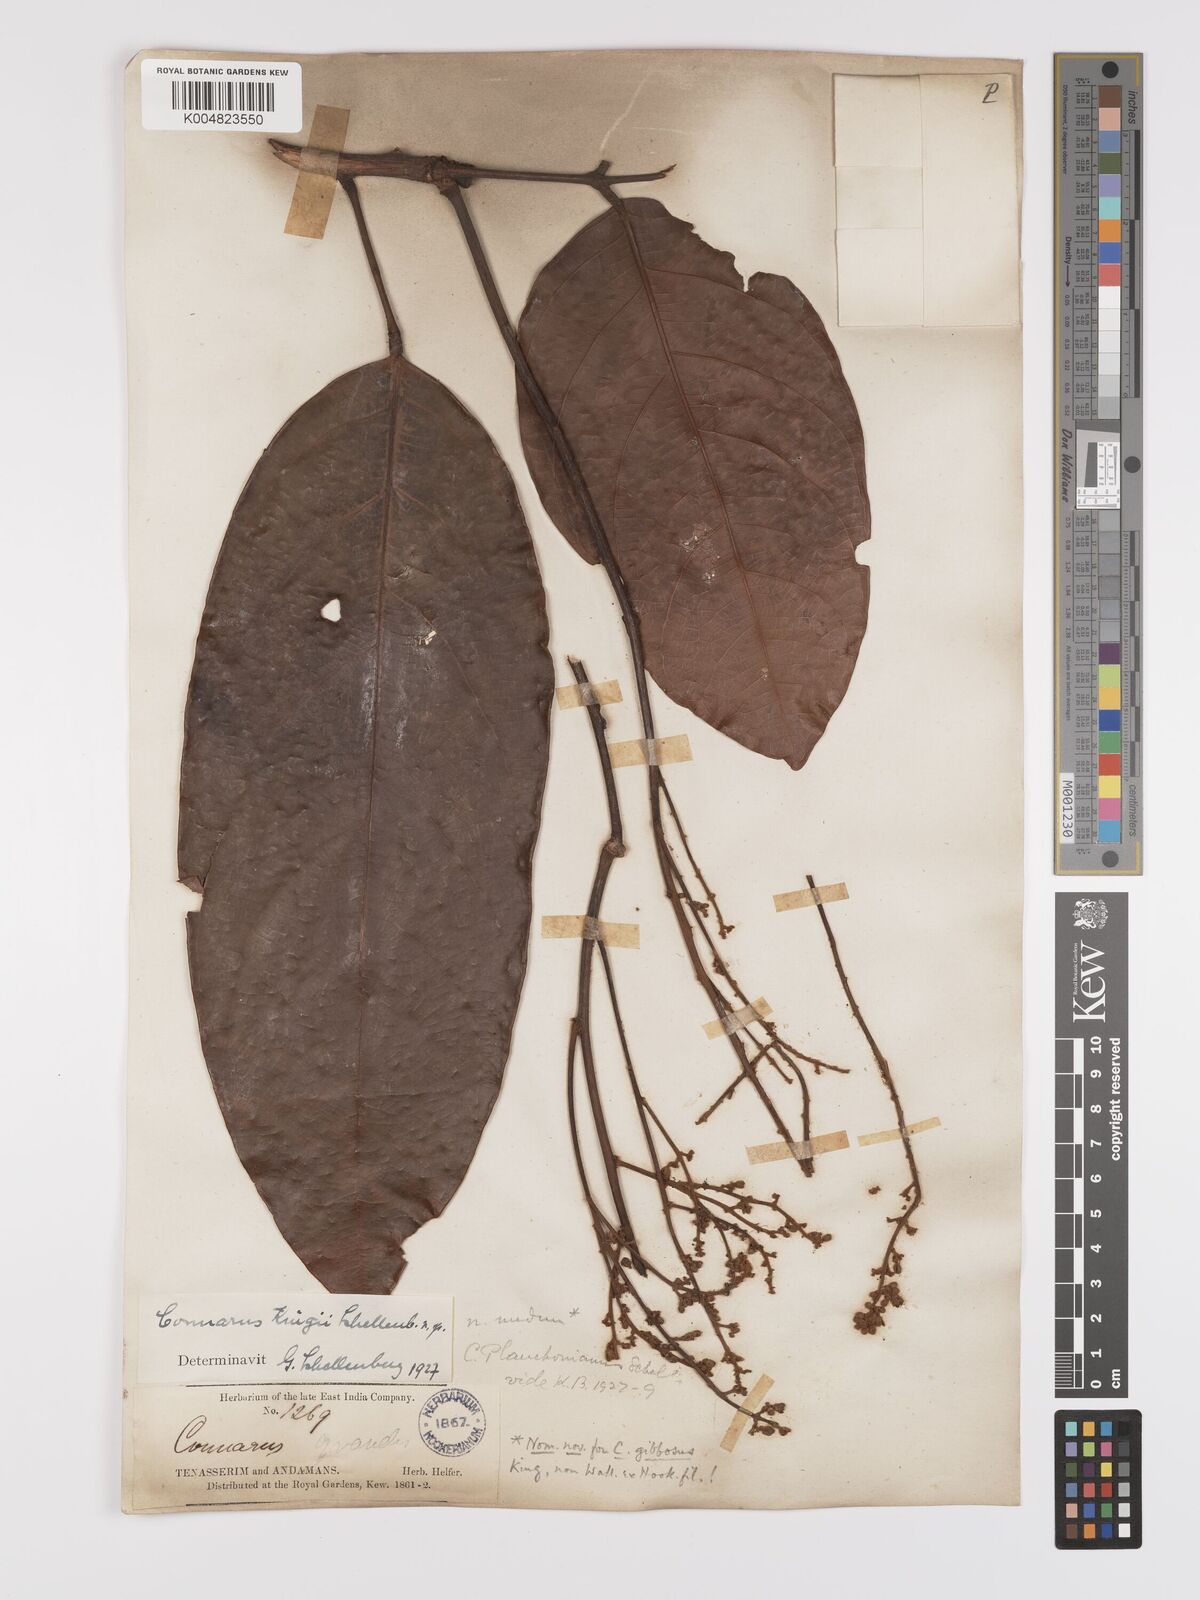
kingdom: Plantae
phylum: Tracheophyta
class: Magnoliopsida
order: Oxalidales
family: Connaraceae
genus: Connarus
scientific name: Connarus kingii
